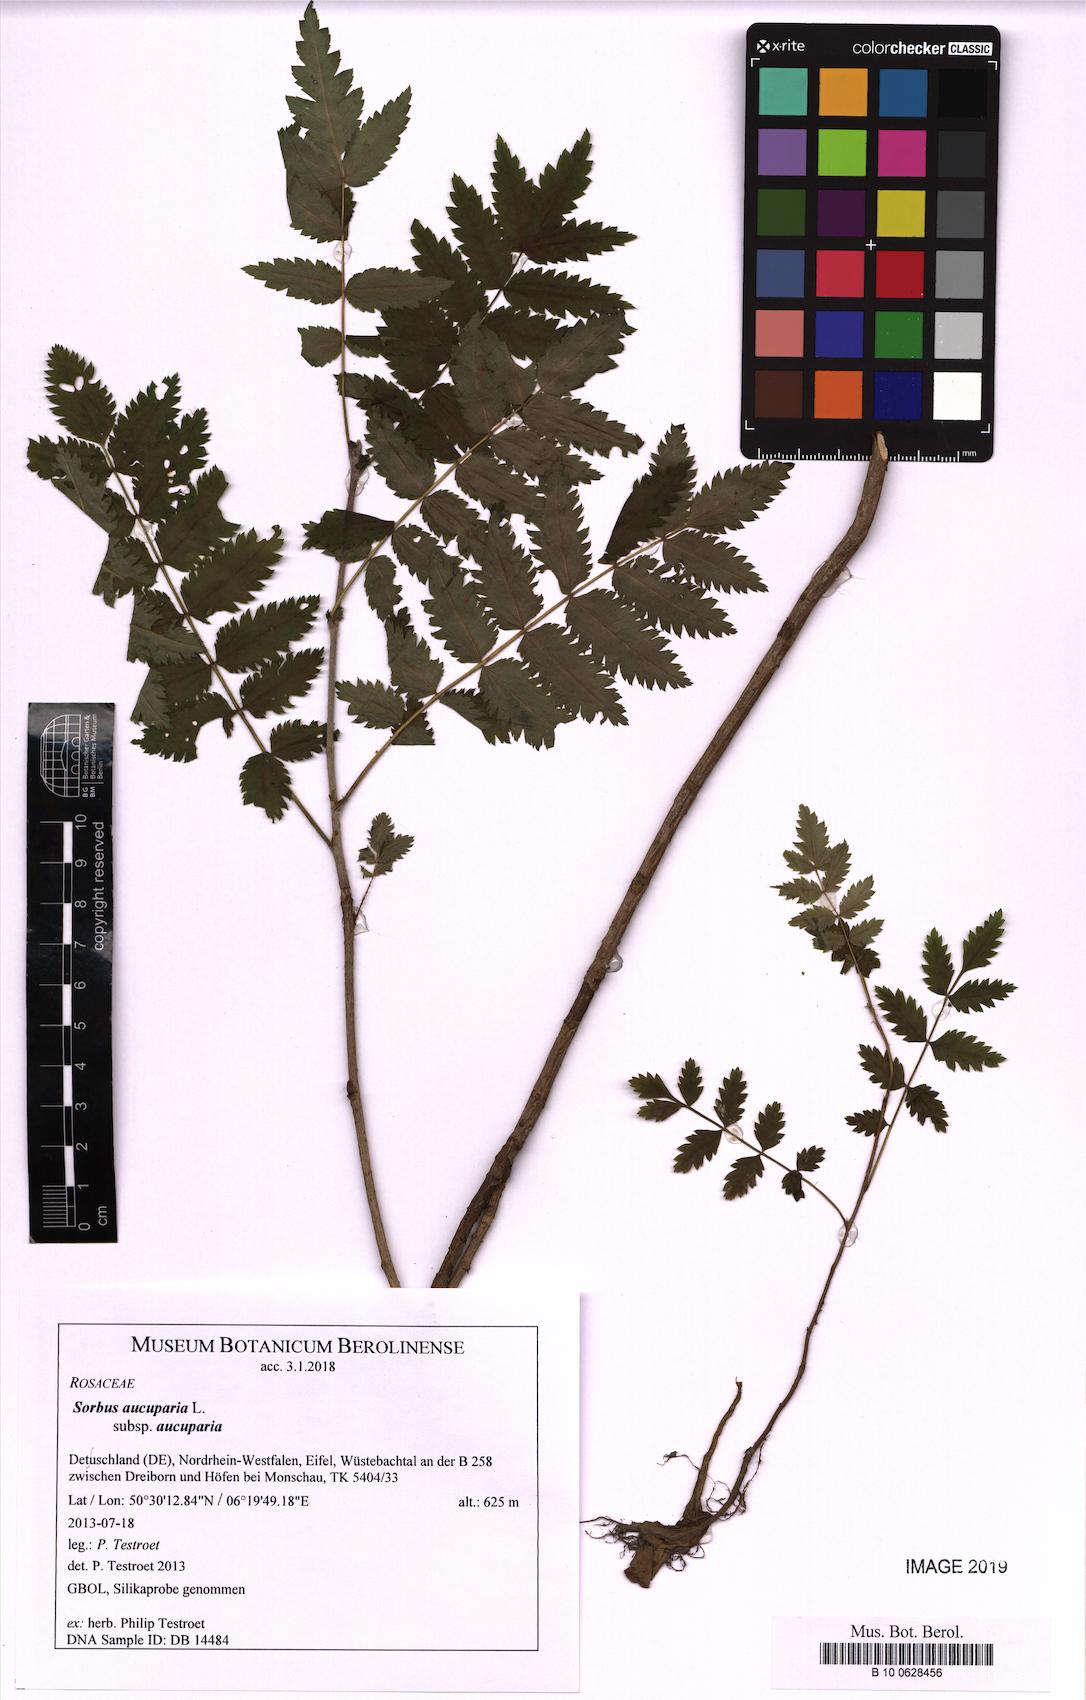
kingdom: Plantae
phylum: Tracheophyta
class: Magnoliopsida
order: Rosales
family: Rosaceae
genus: Sorbus
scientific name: Sorbus aucuparia
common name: Rowan
